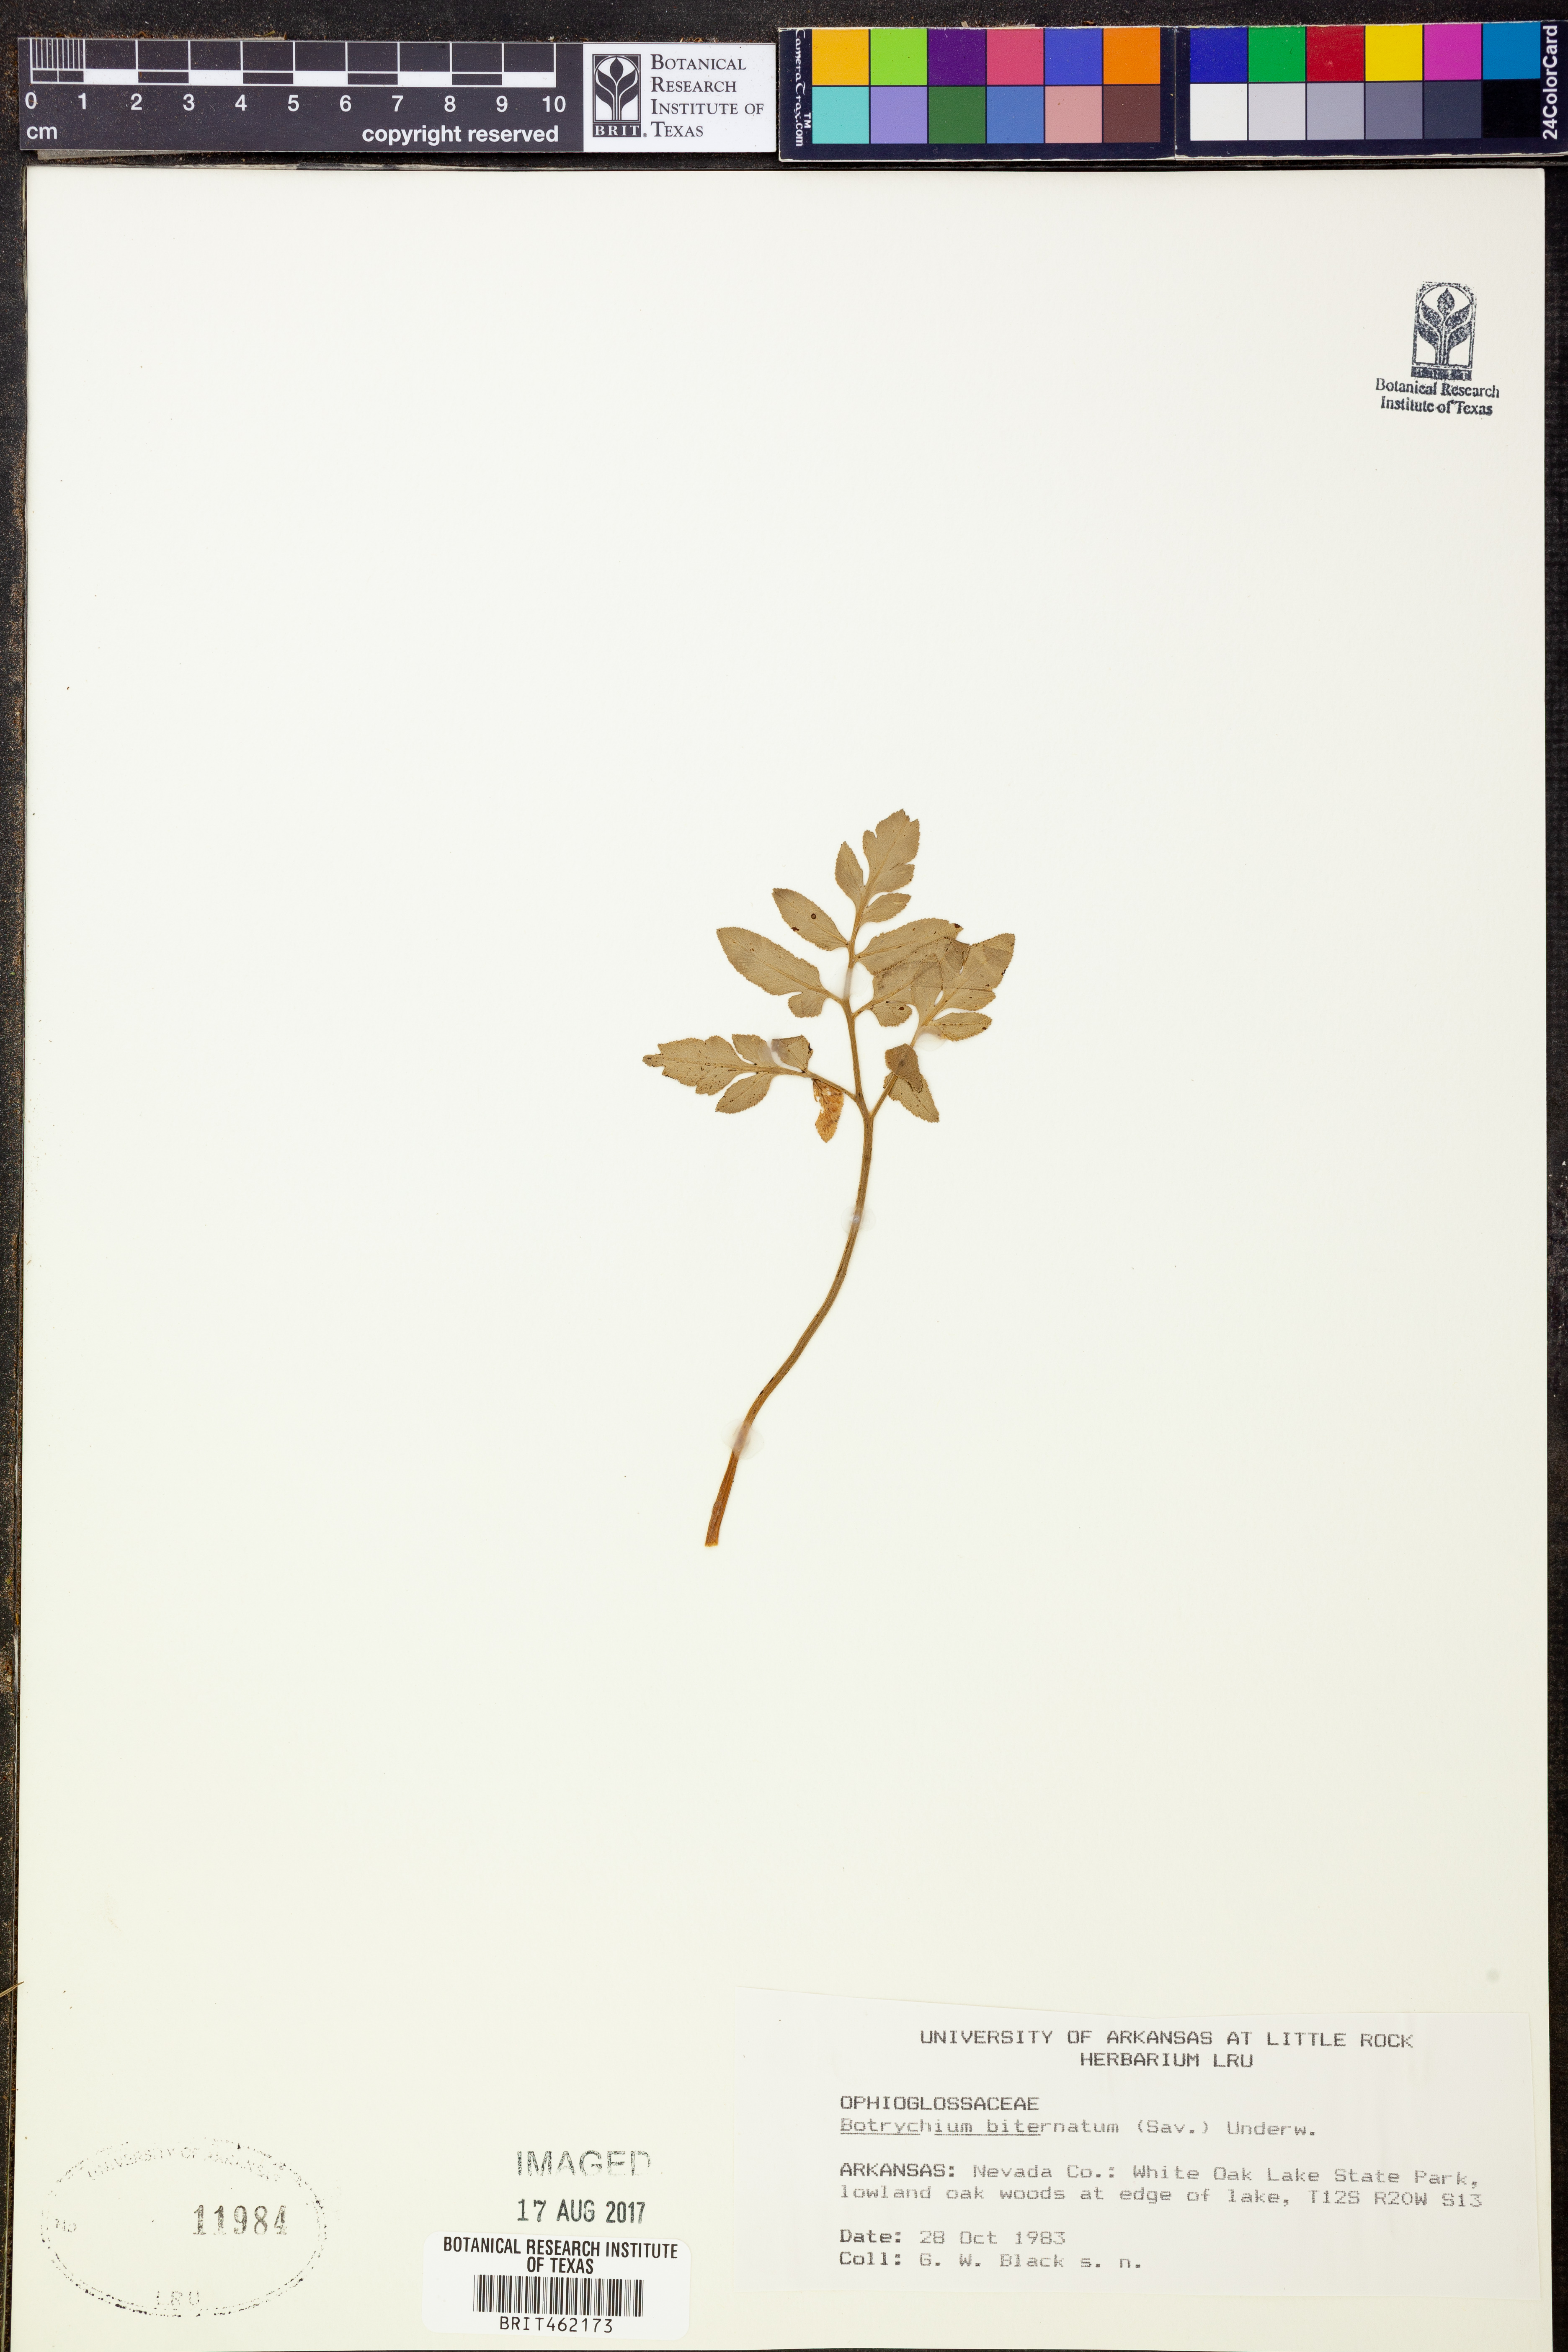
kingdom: Plantae
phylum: Tracheophyta
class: Polypodiopsida
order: Ophioglossales
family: Ophioglossaceae
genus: Sceptridium
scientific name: Sceptridium biternatum
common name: Sparse-lobed grapefern
